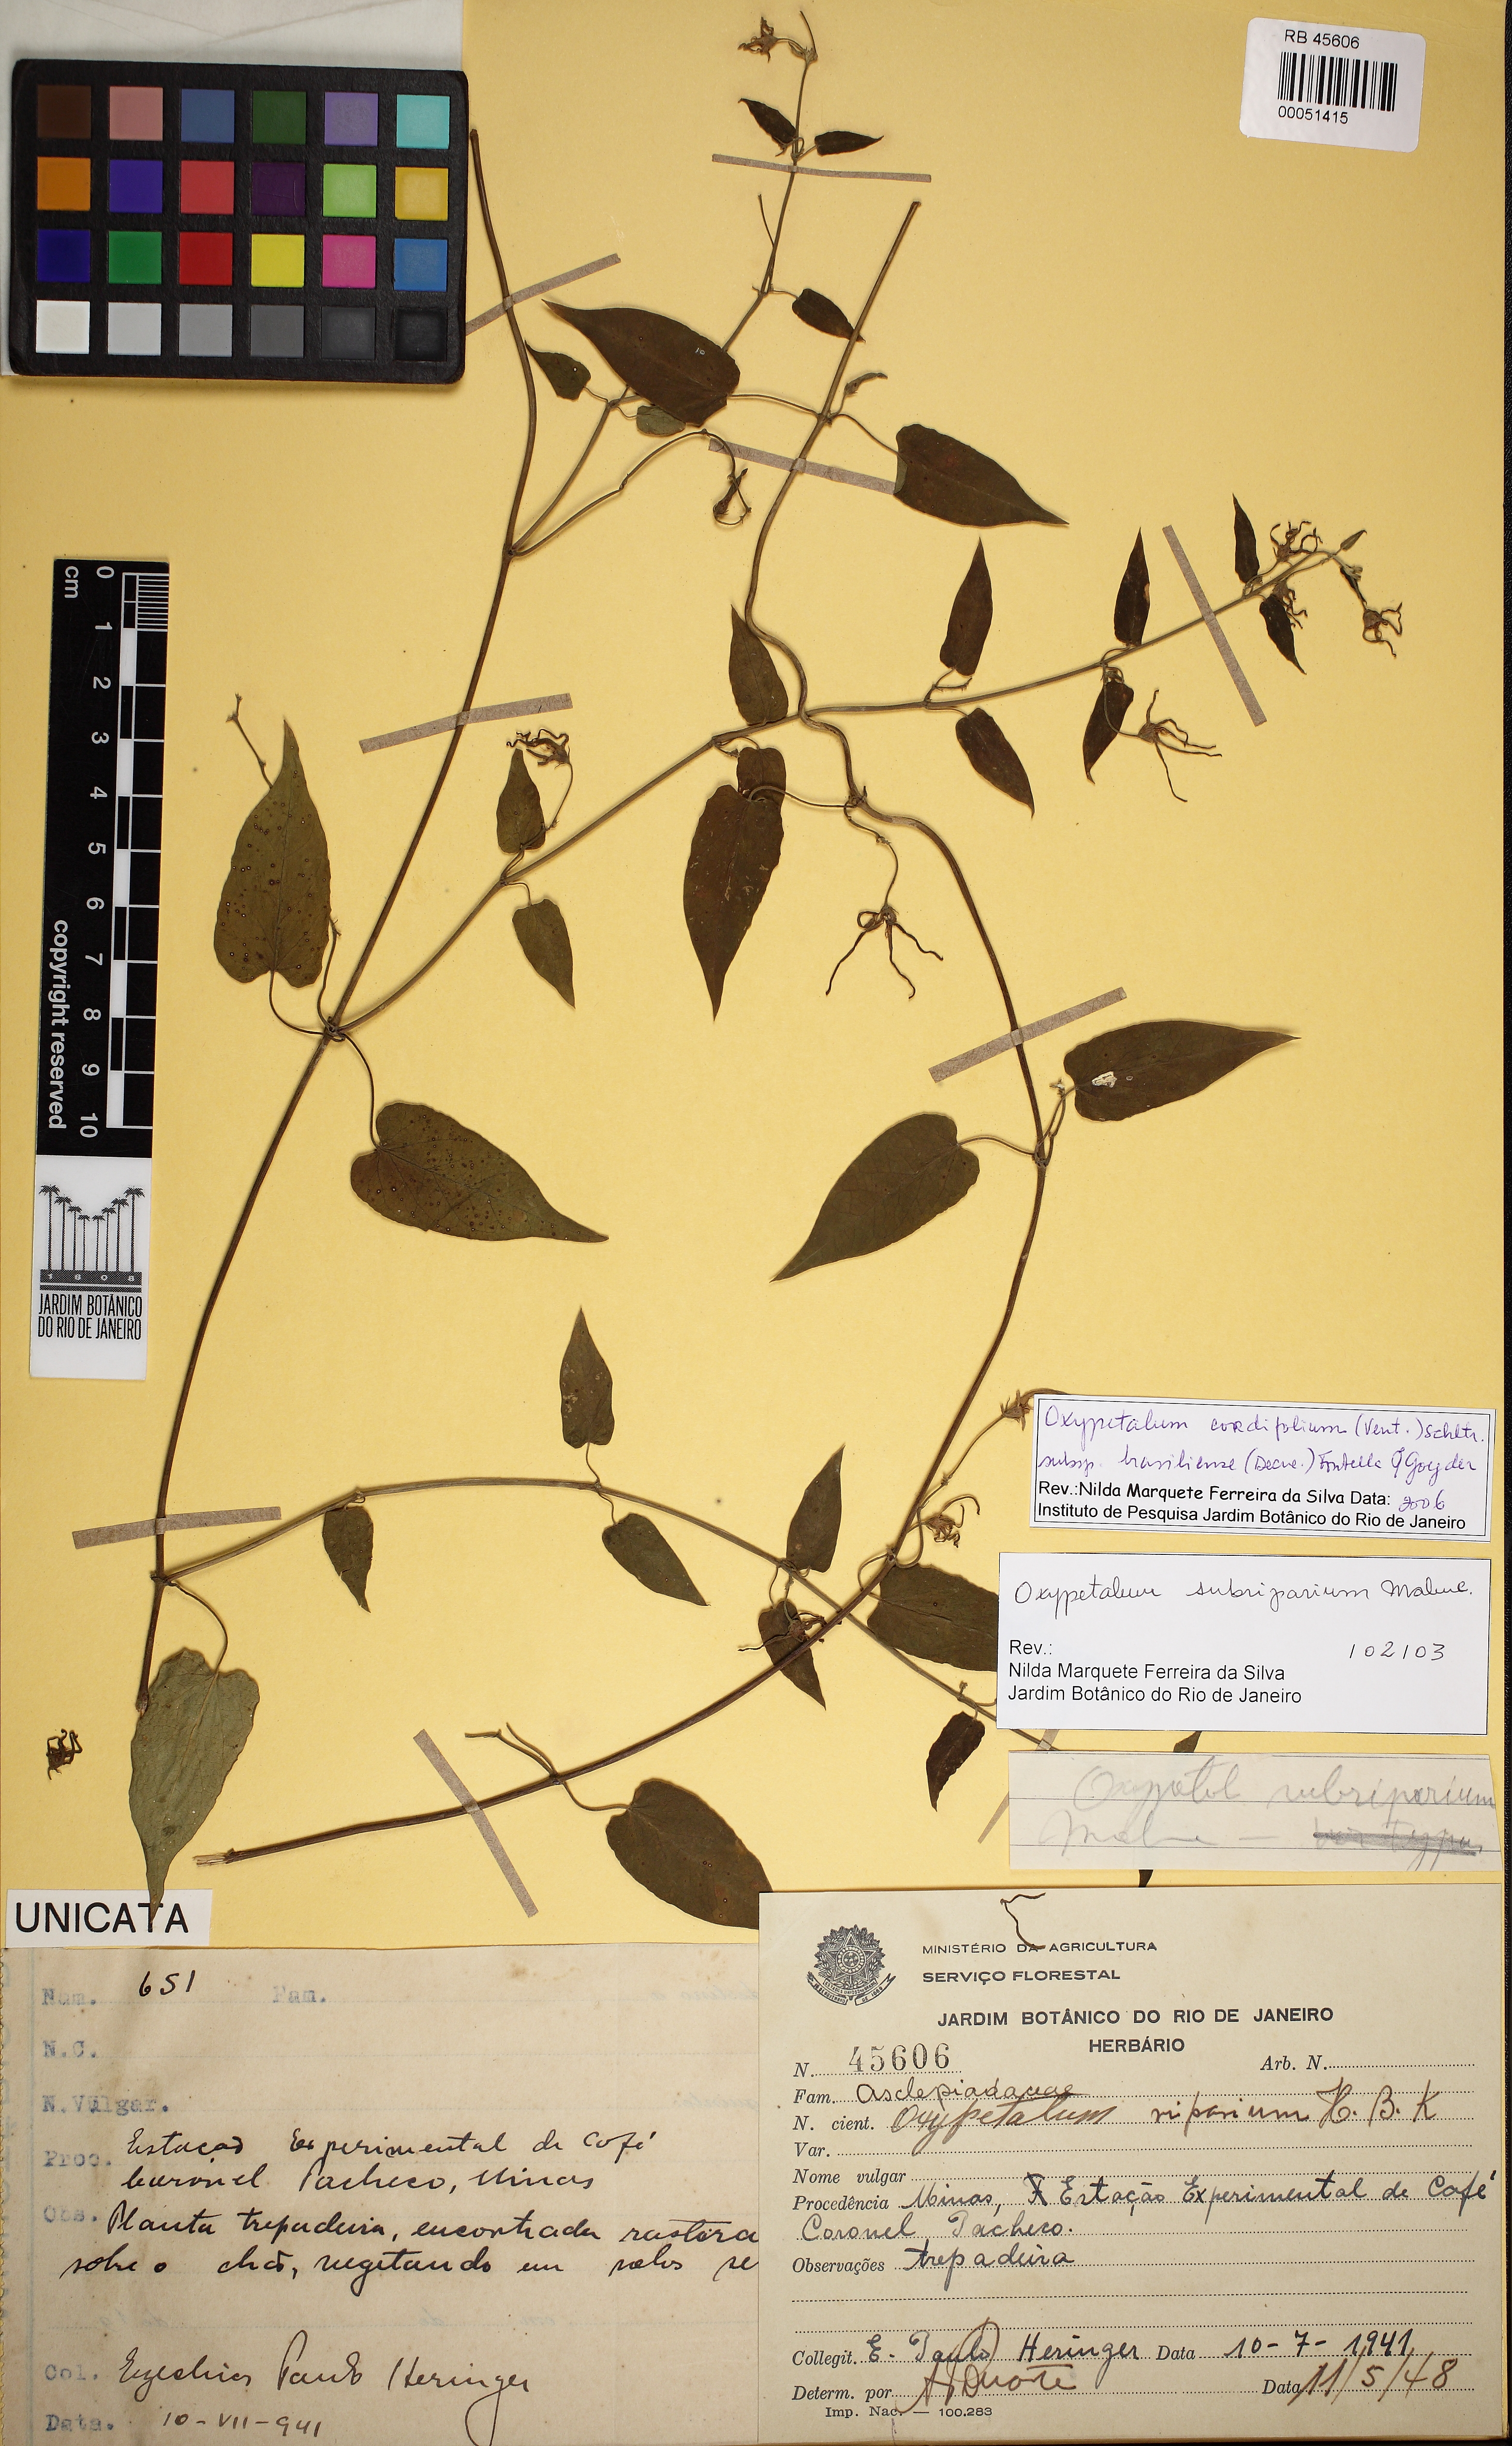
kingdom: Plantae
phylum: Tracheophyta
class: Magnoliopsida
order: Gentianales
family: Apocynaceae
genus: Oxypetalum
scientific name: Oxypetalum cordifolium
